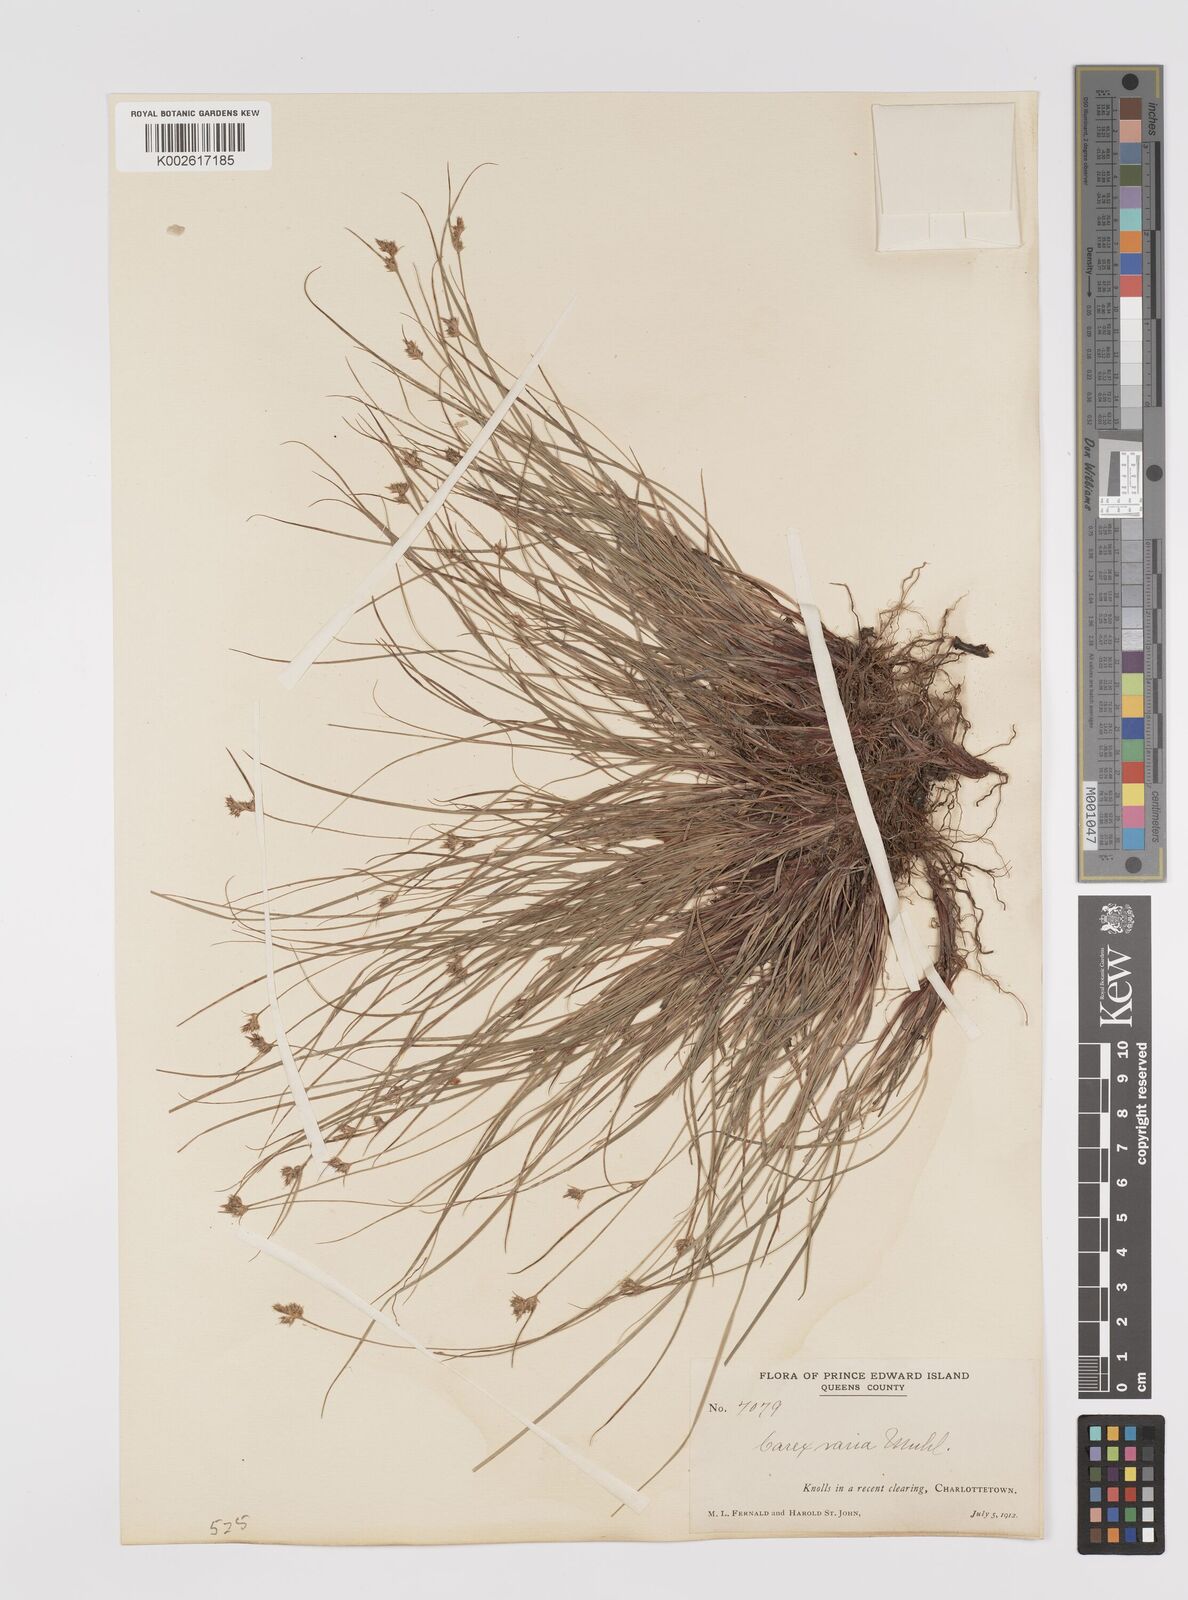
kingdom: Plantae
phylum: Tracheophyta
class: Liliopsida
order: Poales
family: Cyperaceae
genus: Carex
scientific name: Carex albicans
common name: Bellow-beaked sedge
